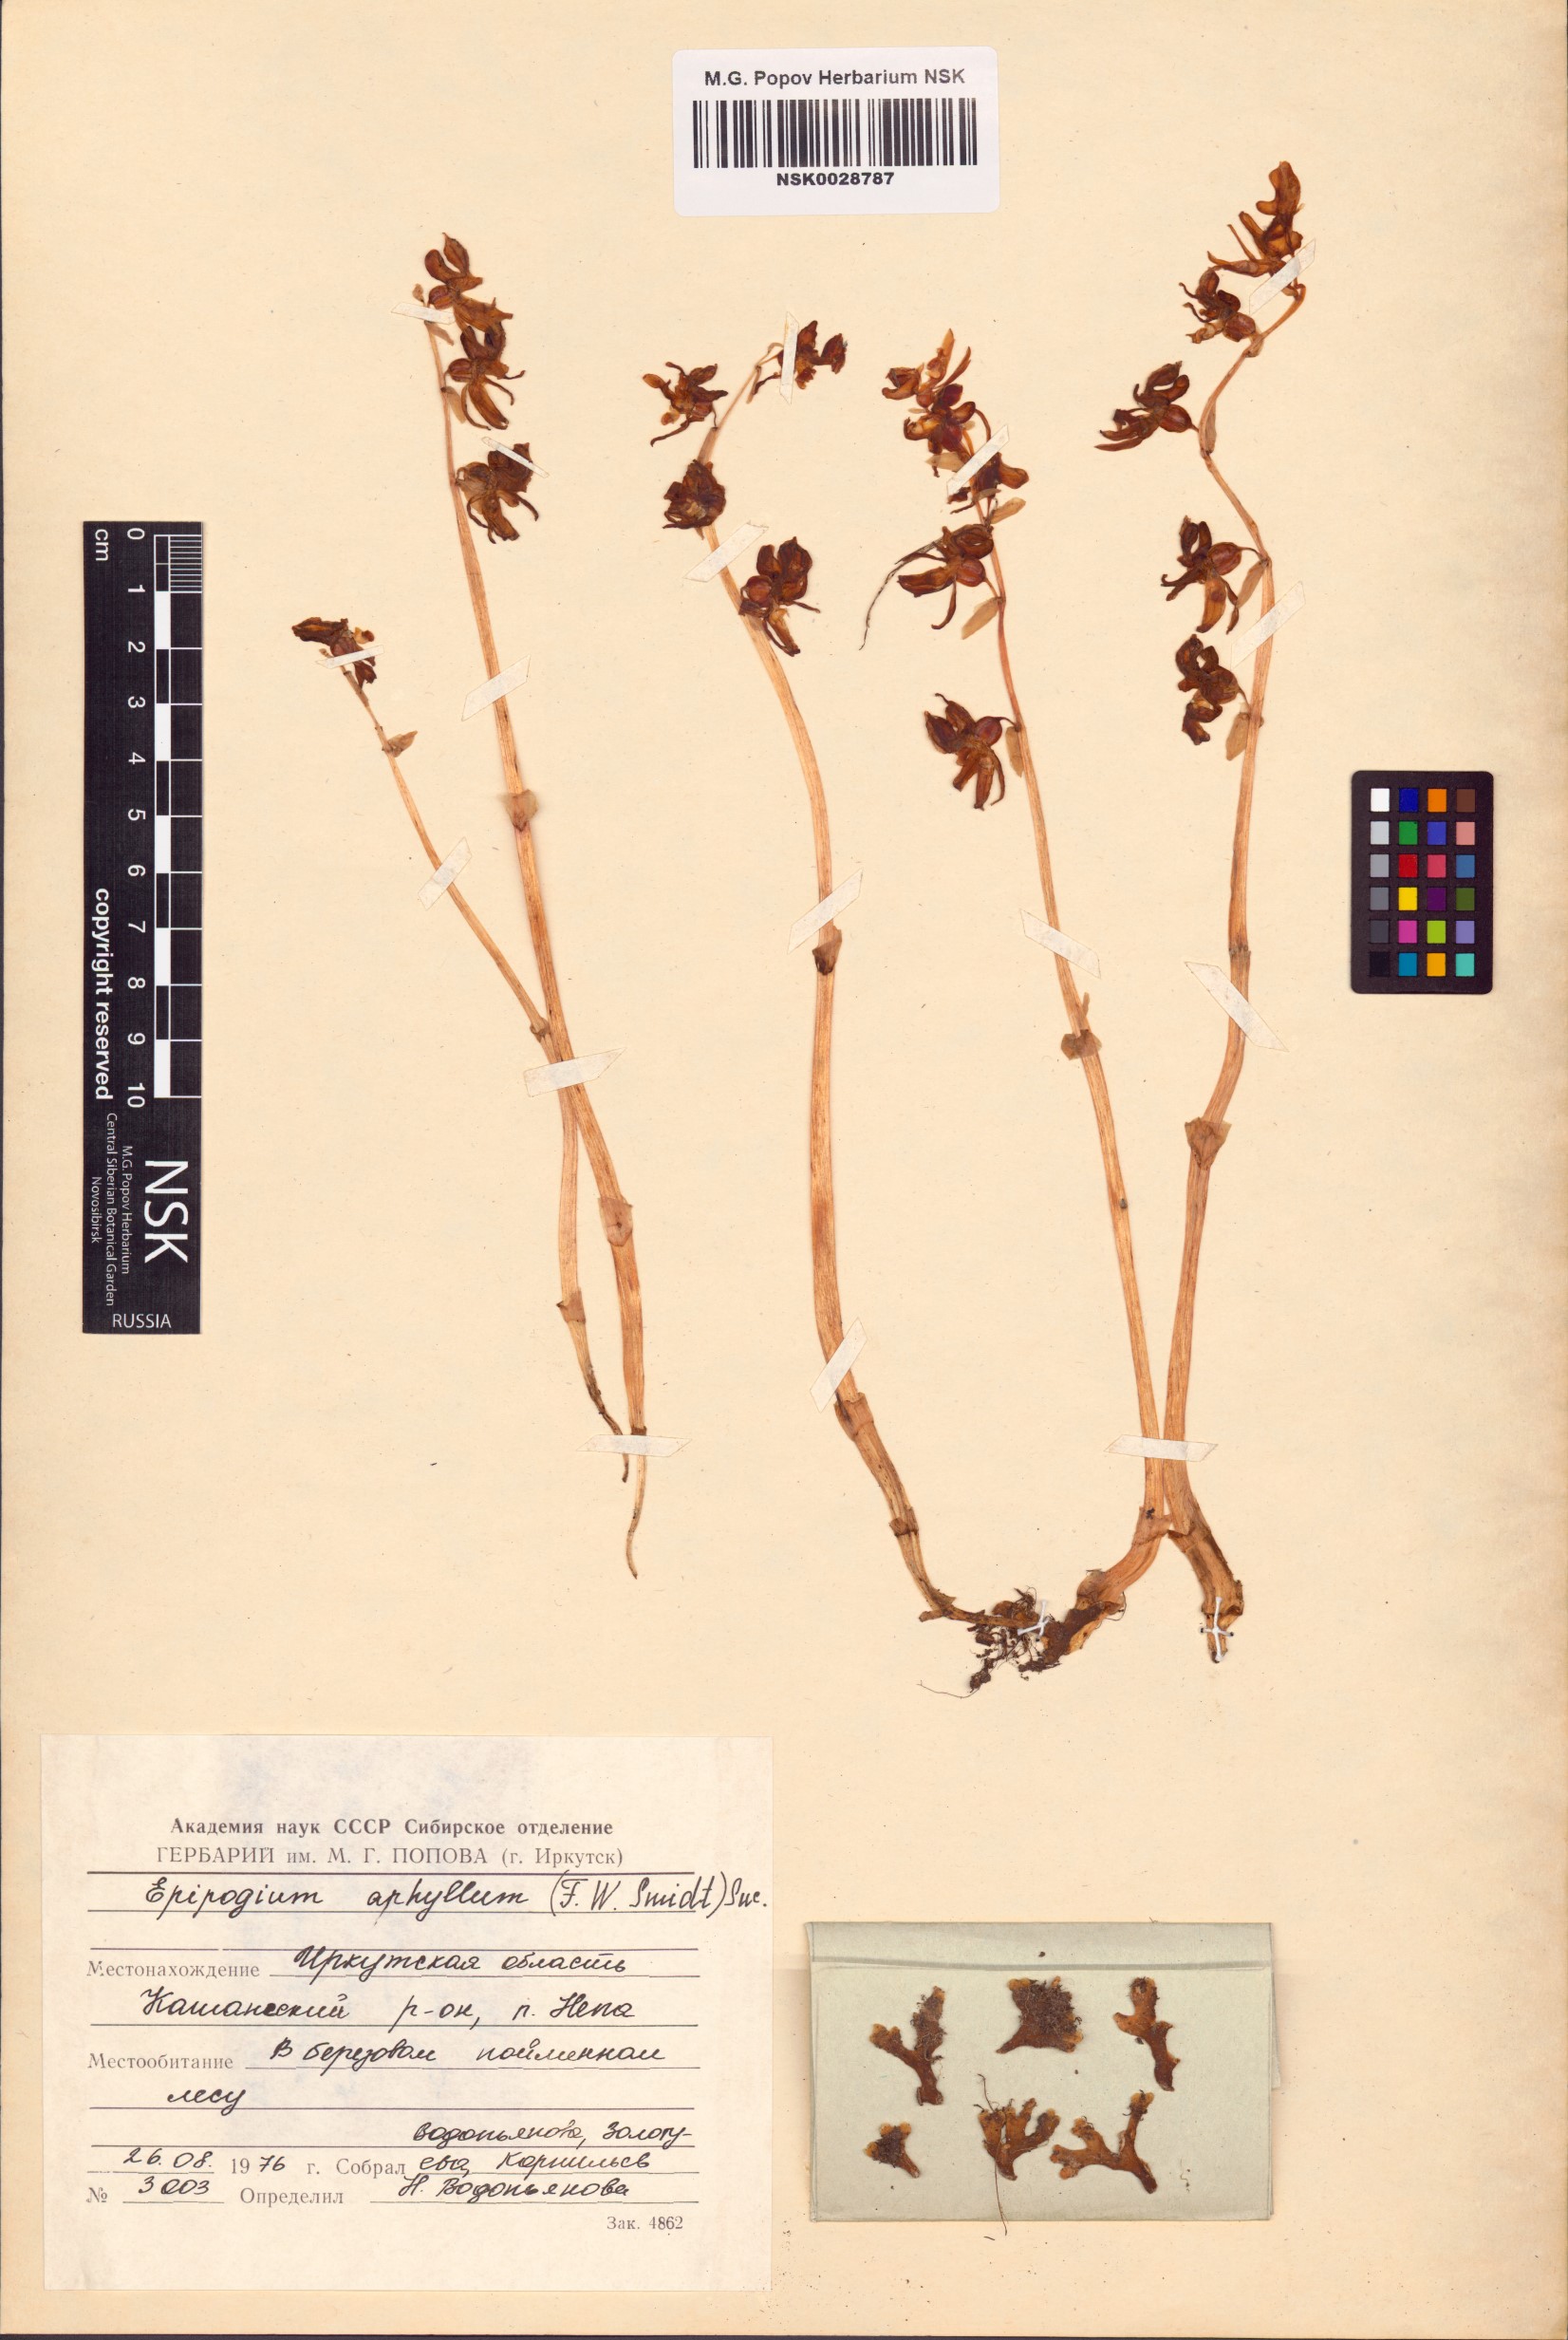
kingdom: Plantae
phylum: Tracheophyta
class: Liliopsida
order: Asparagales
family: Orchidaceae
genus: Epipogium
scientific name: Epipogium aphyllum
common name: Ghost orchid
